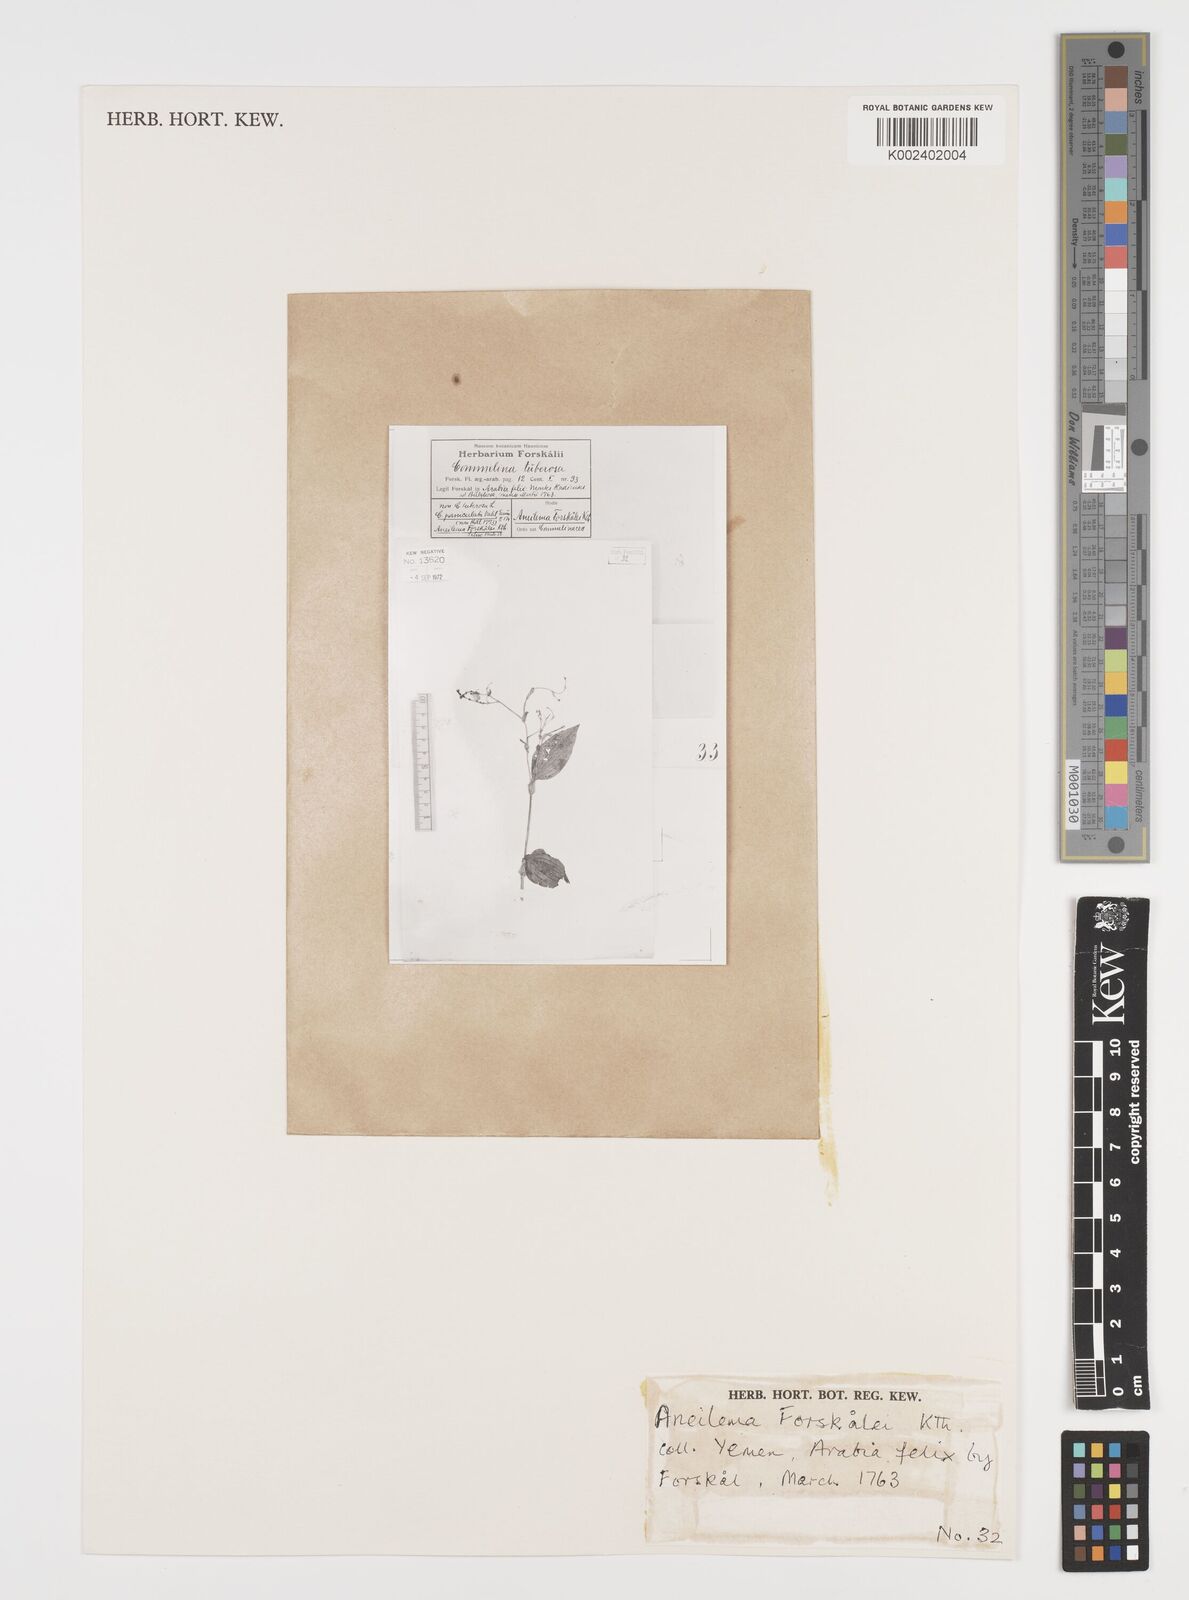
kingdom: Plantae
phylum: Tracheophyta
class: Liliopsida
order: Commelinales
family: Commelinaceae
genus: Aneilema
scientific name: Aneilema forskalii
